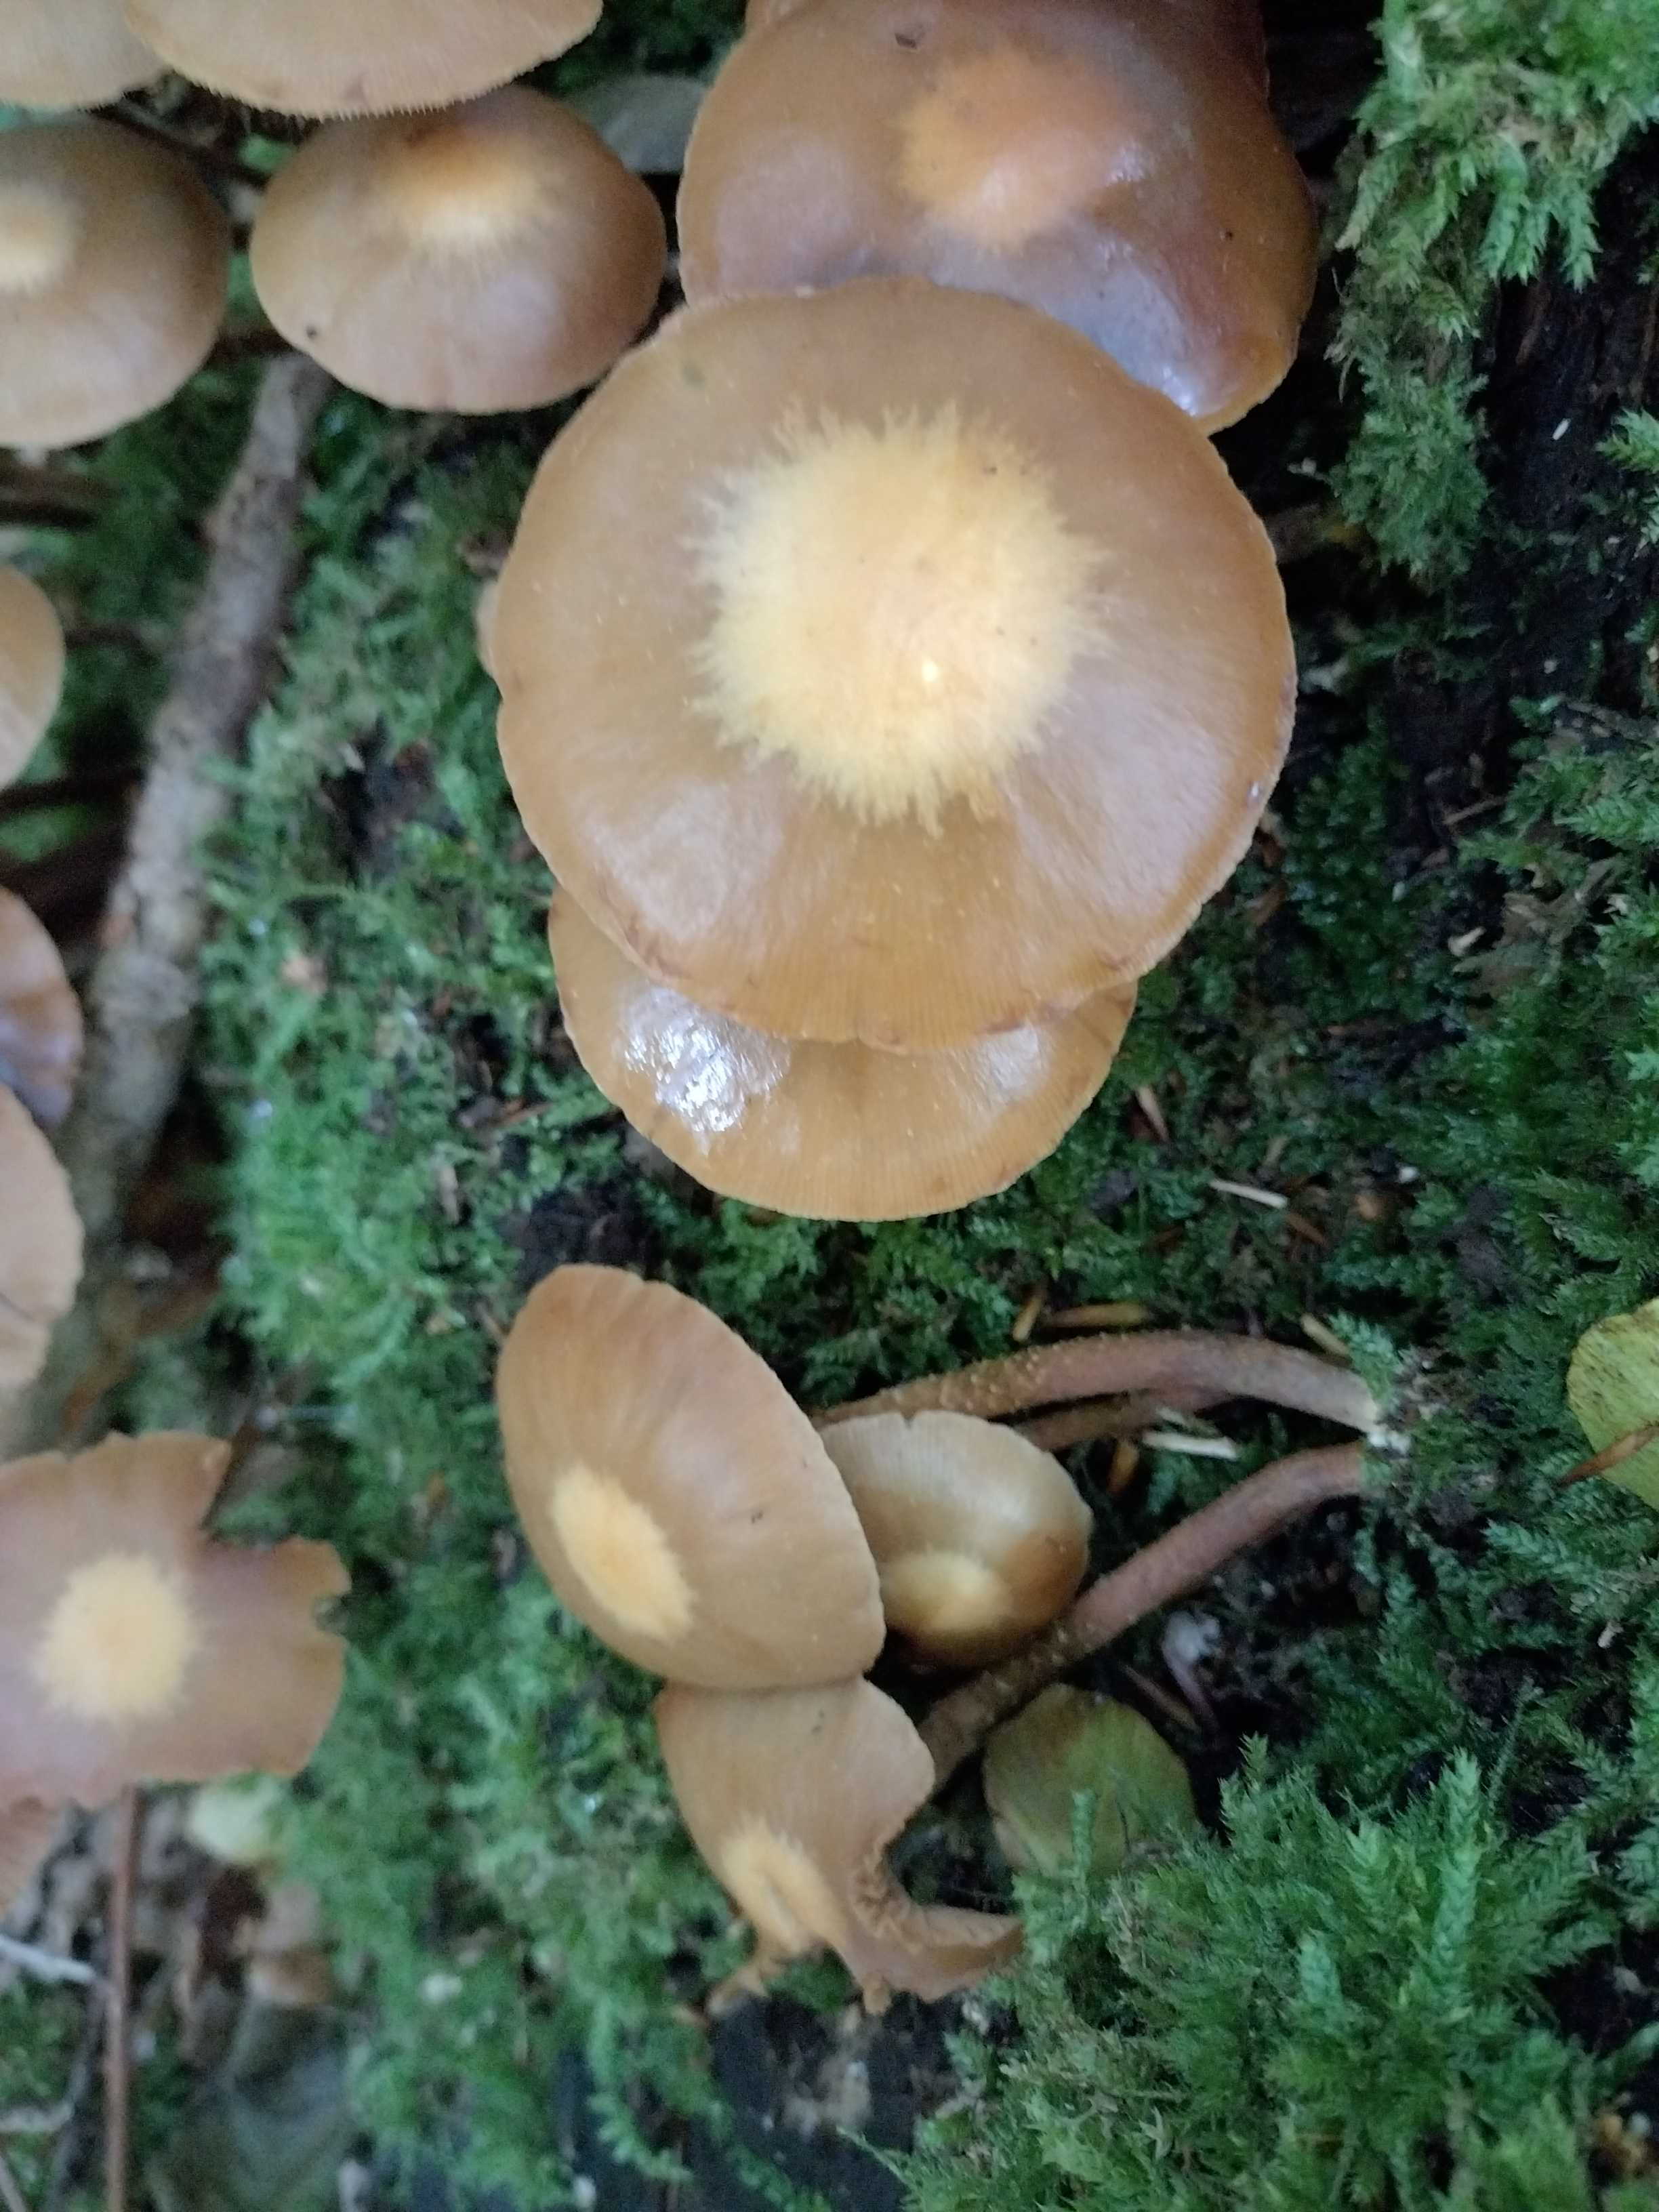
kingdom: Fungi
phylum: Basidiomycota
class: Agaricomycetes
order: Agaricales
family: Strophariaceae
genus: Kuehneromyces
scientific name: Kuehneromyces mutabilis
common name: foranderlig skælhat
